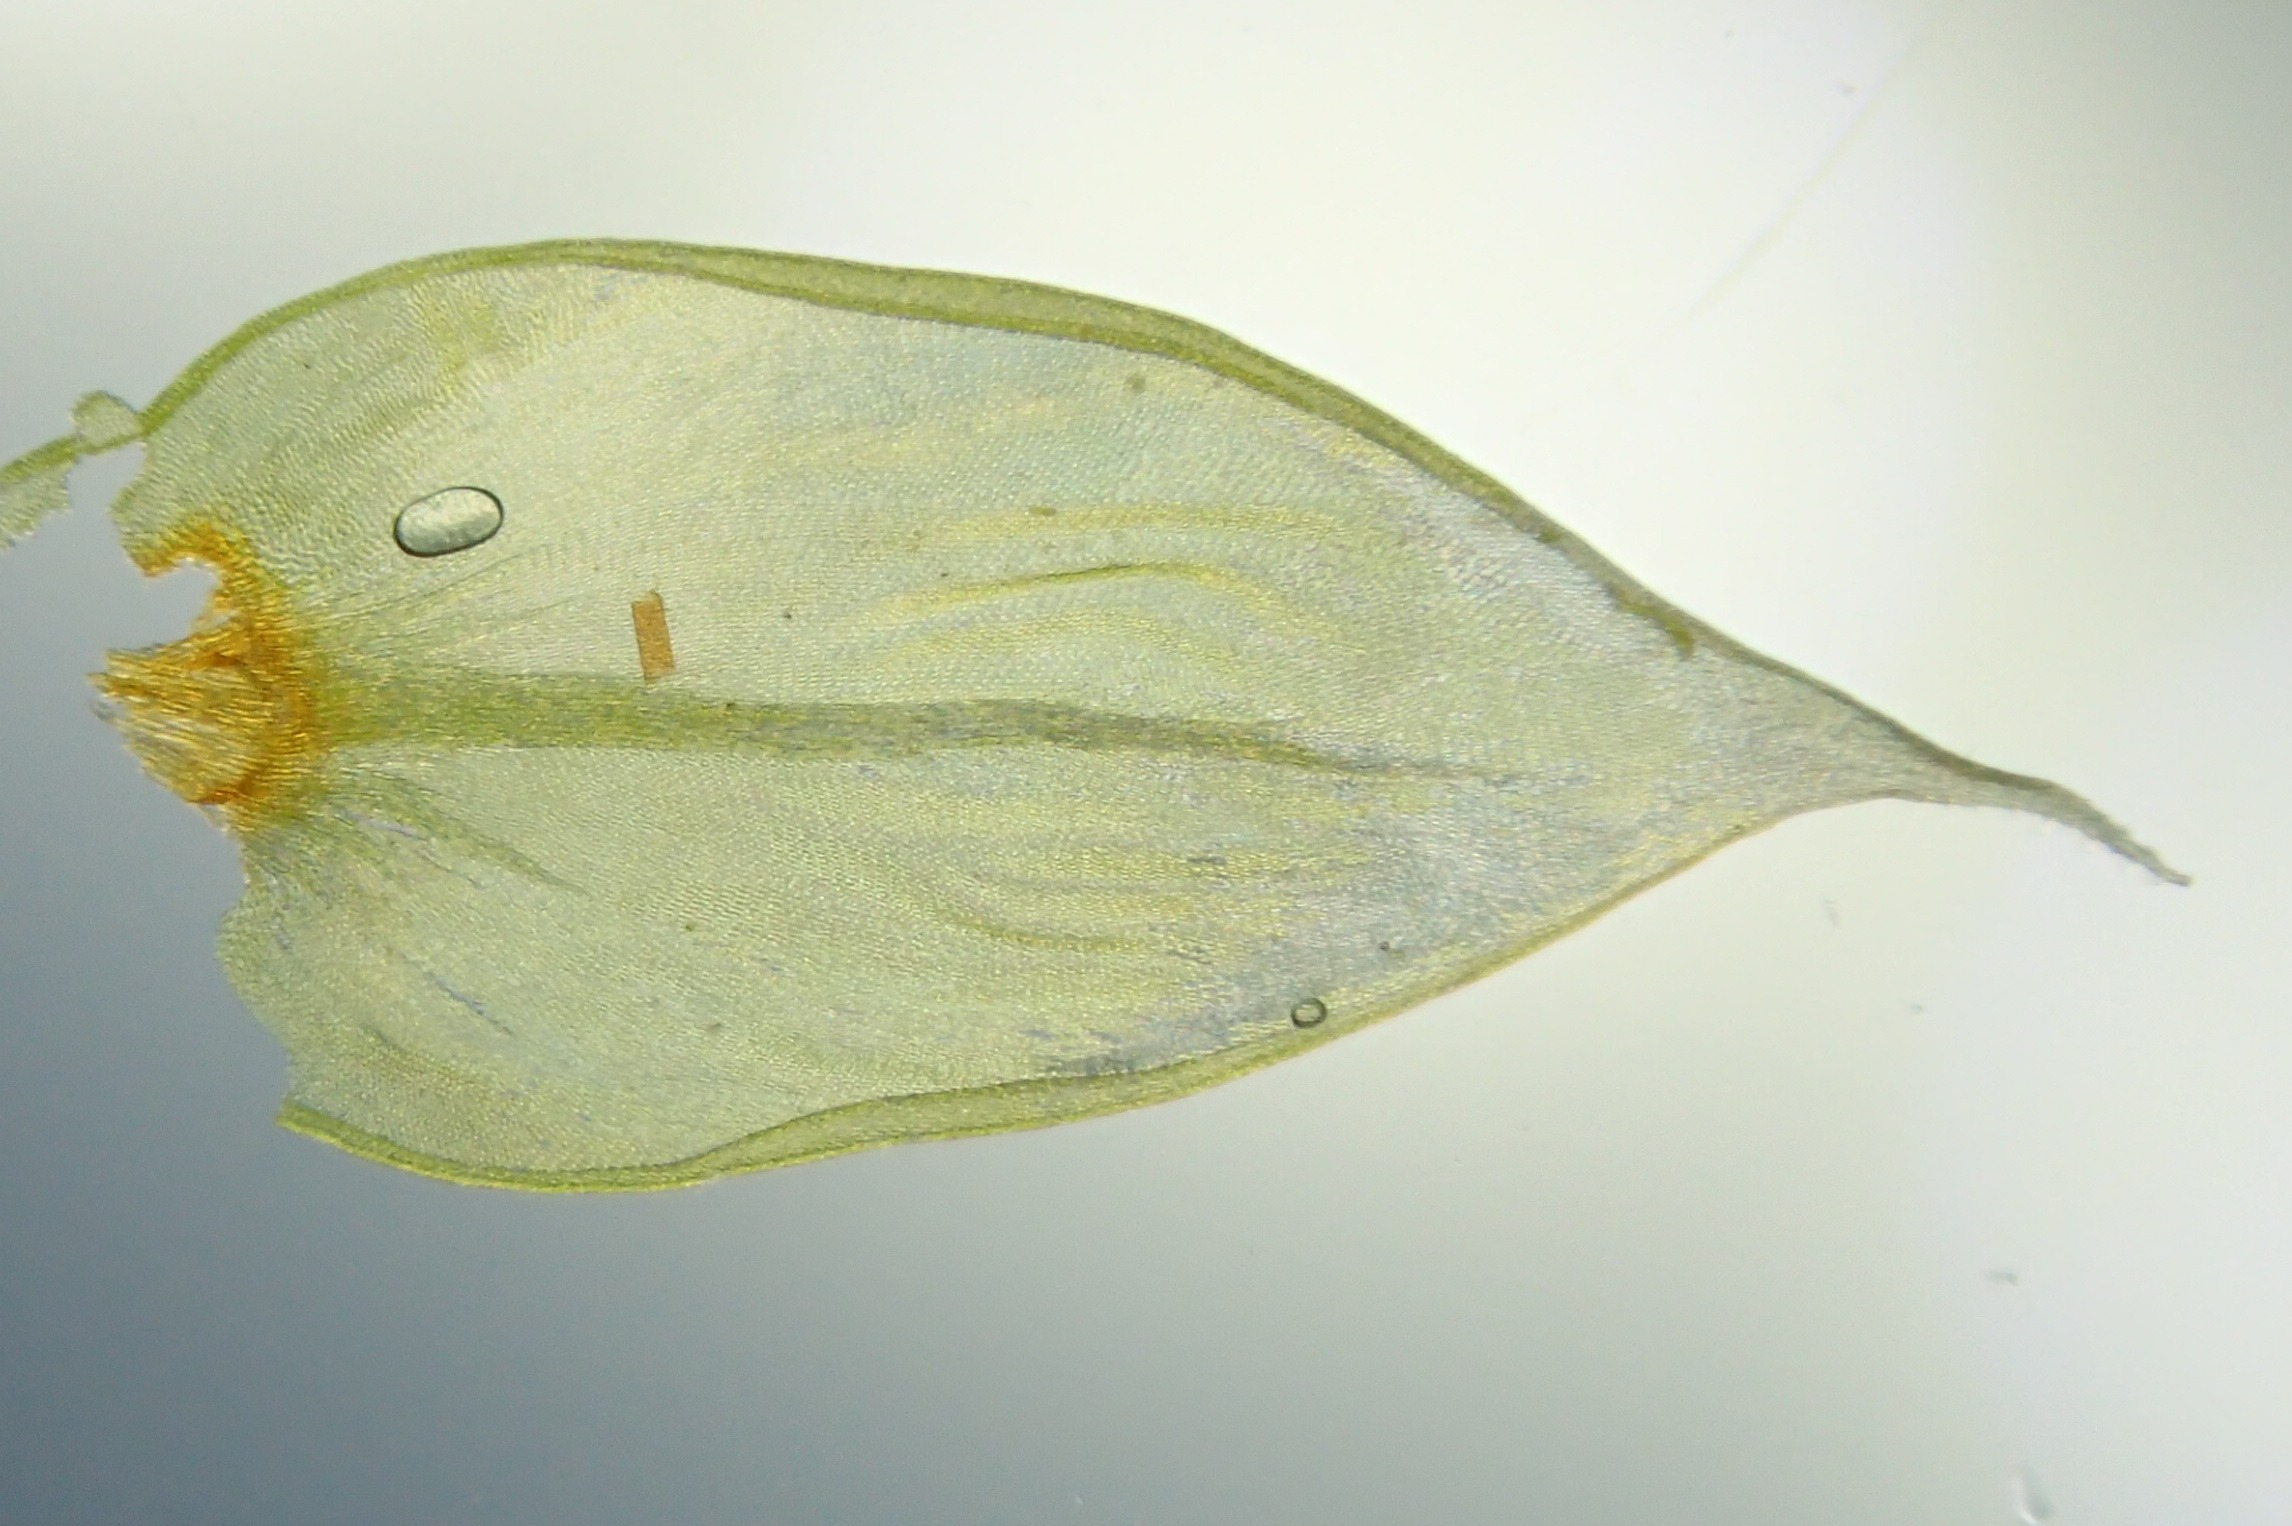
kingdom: Plantae
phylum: Bryophyta
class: Bryopsida
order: Hypnales
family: Antitrichiaceae
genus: Antitrichia
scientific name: Antitrichia curtipendula
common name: Åben krogtand
